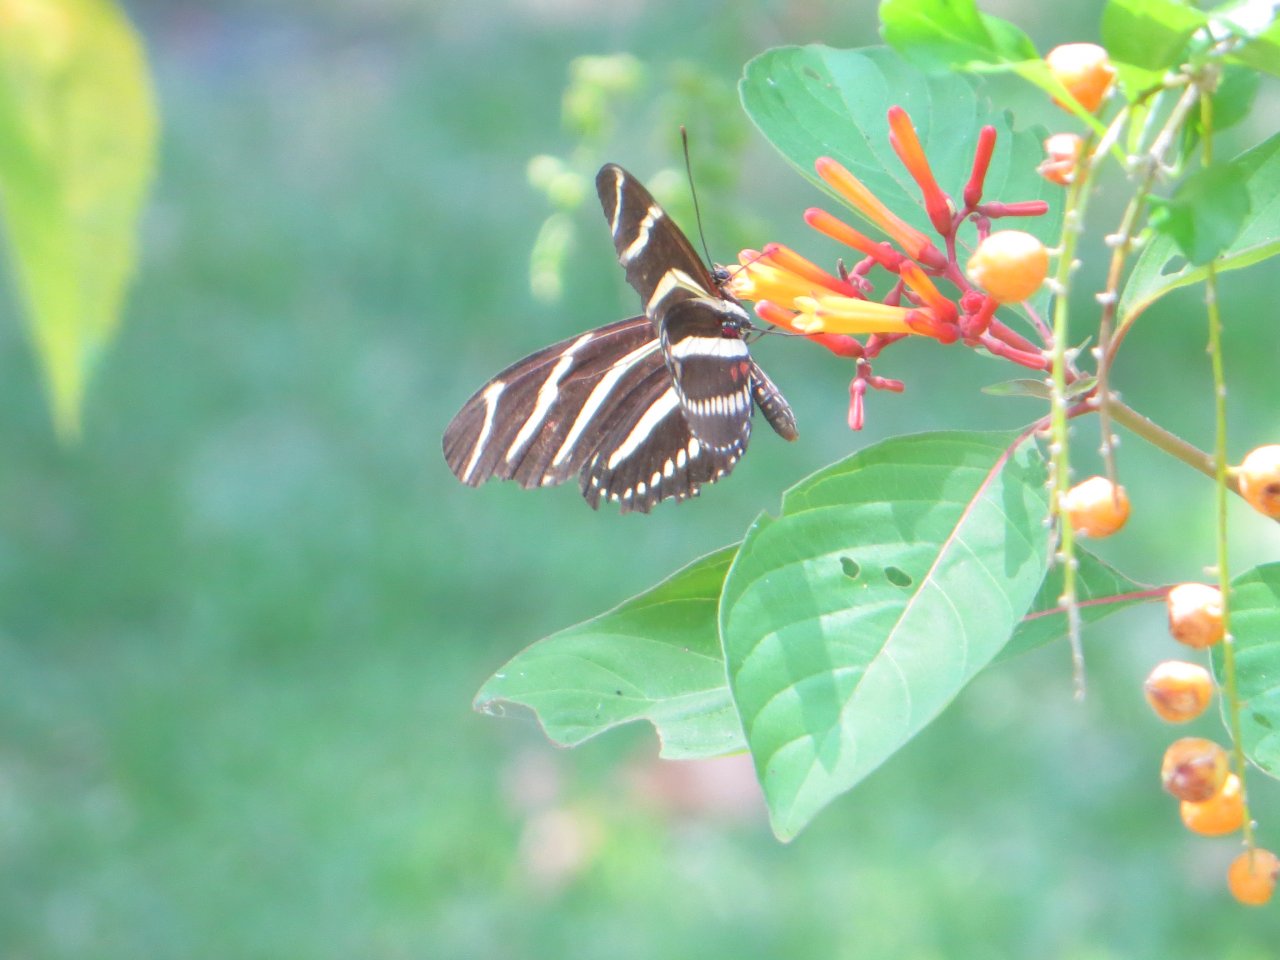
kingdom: Animalia
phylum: Arthropoda
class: Insecta
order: Lepidoptera
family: Nymphalidae
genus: Heliconius
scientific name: Heliconius charithonia
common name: Zebra Longwing
